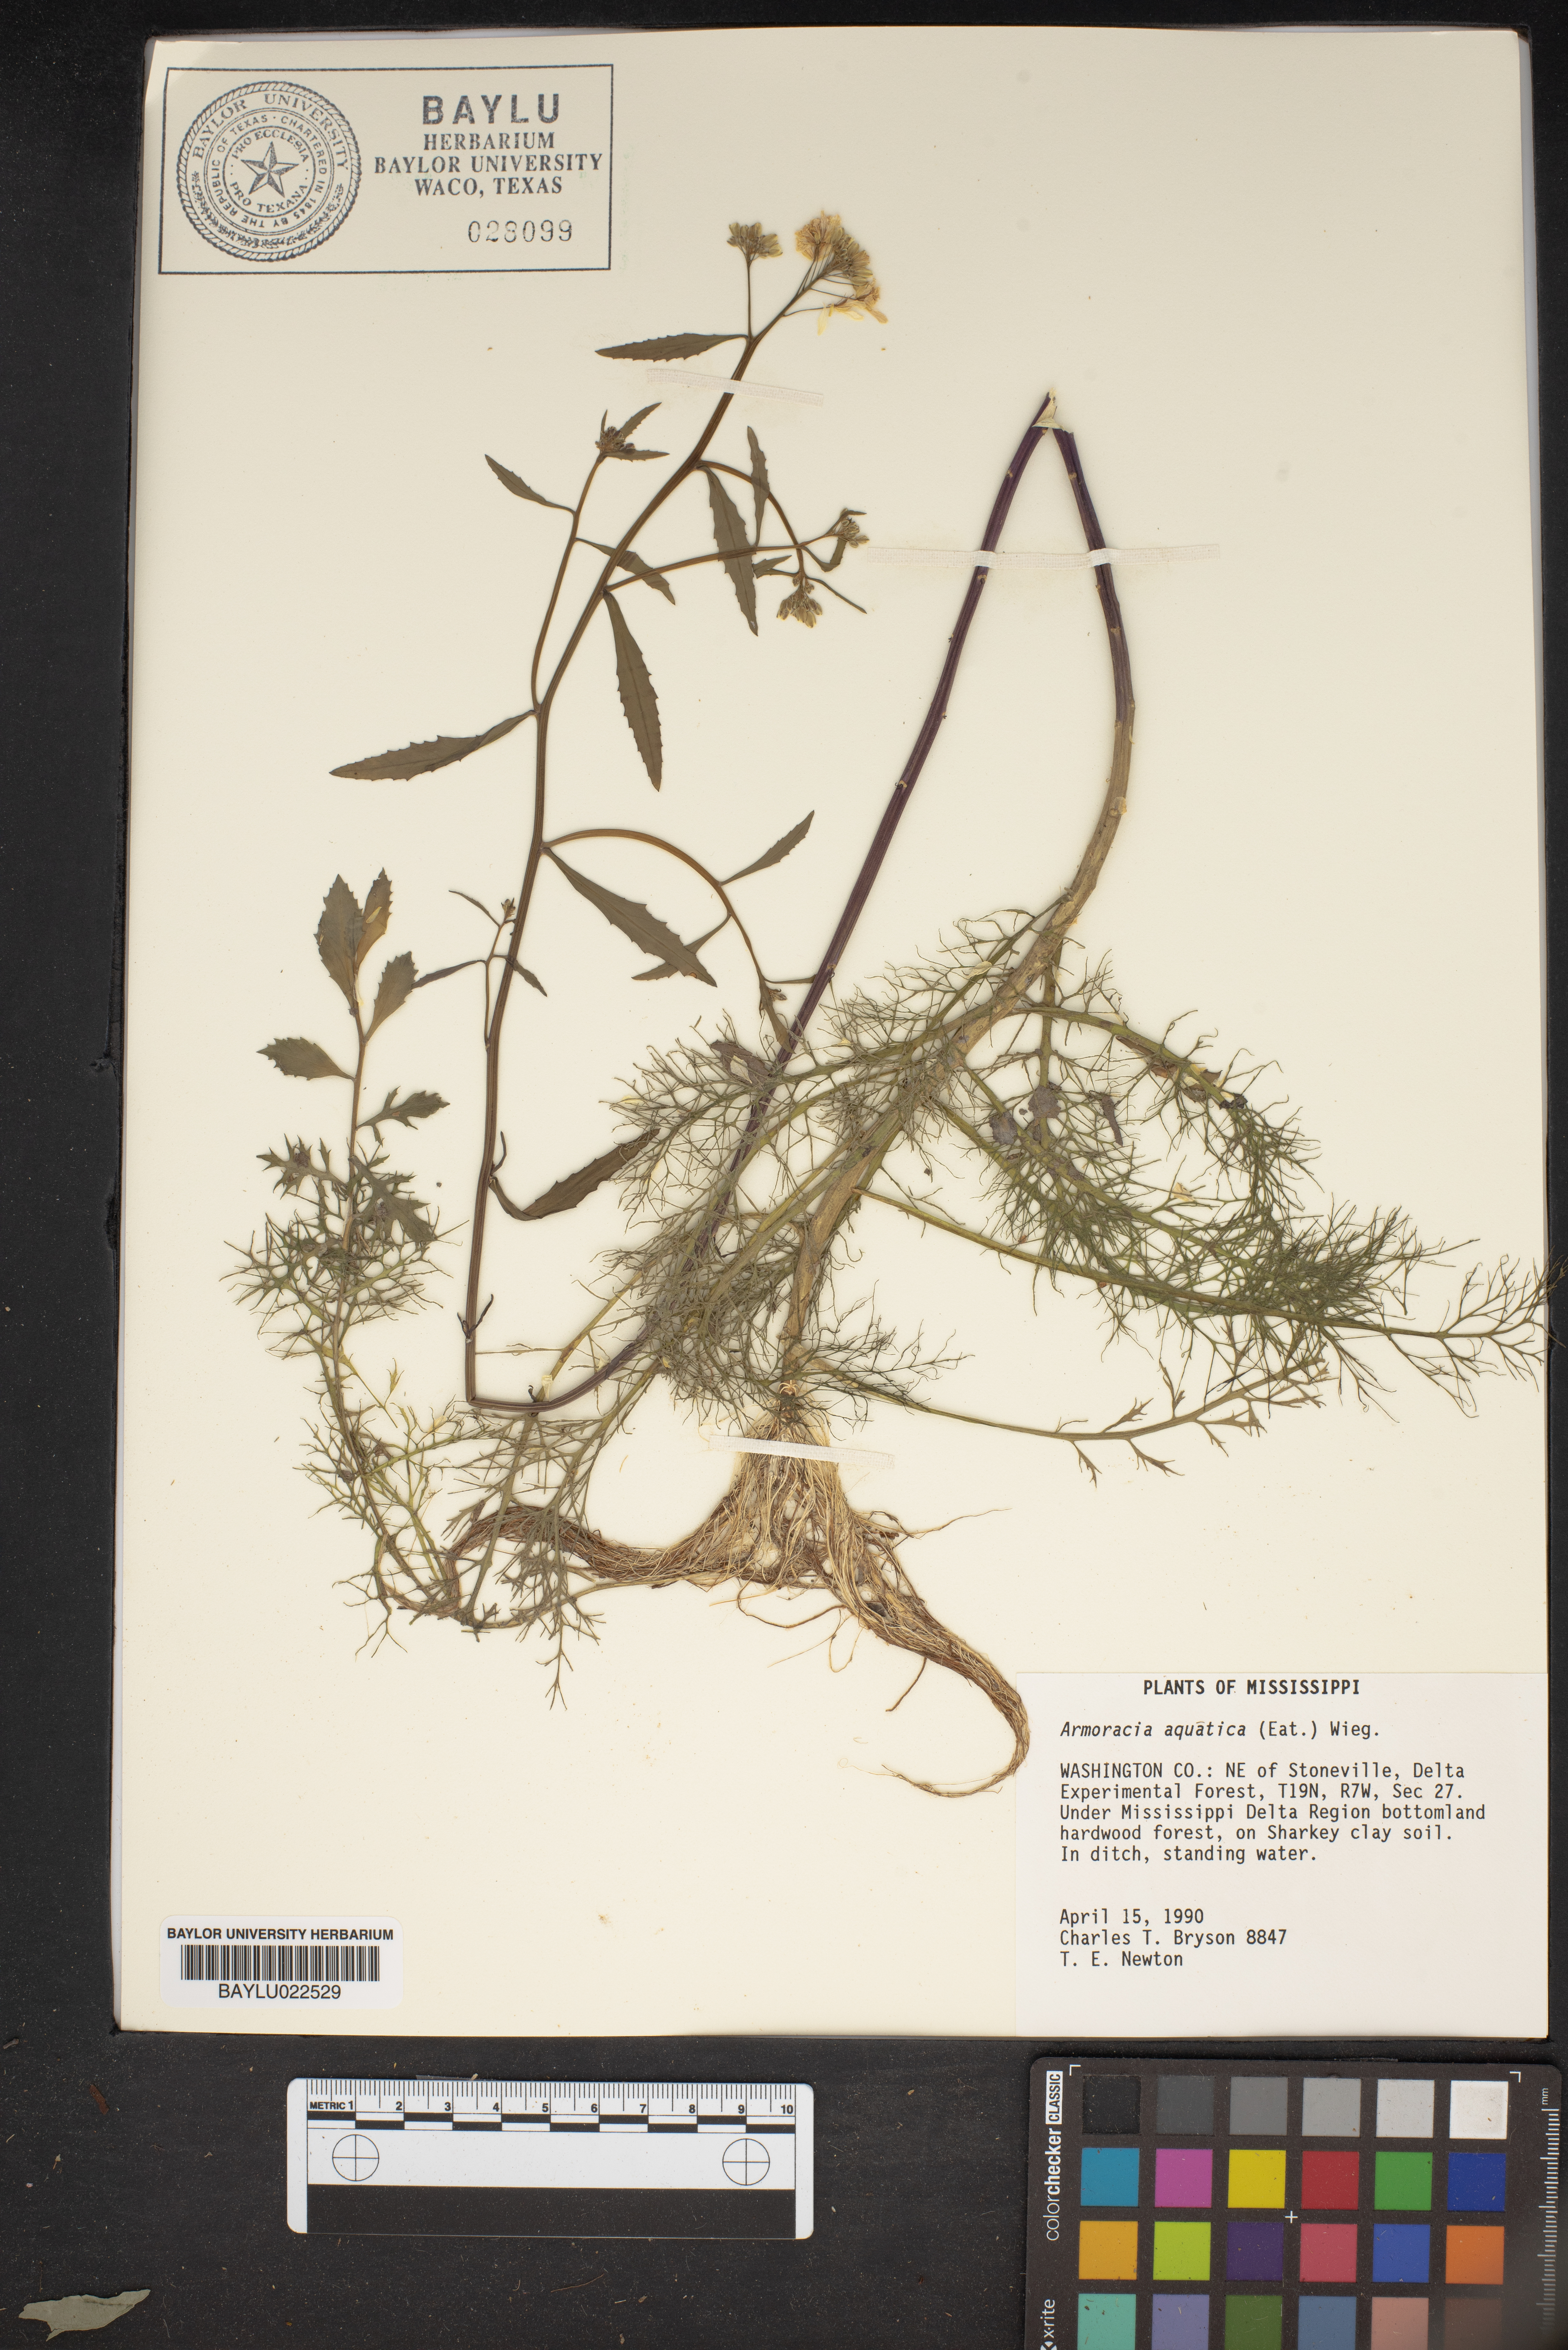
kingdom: Plantae
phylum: Tracheophyta
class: Magnoliopsida
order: Brassicales
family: Brassicaceae
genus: Rorippa
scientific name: Rorippa aquatica
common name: Lake watercress
